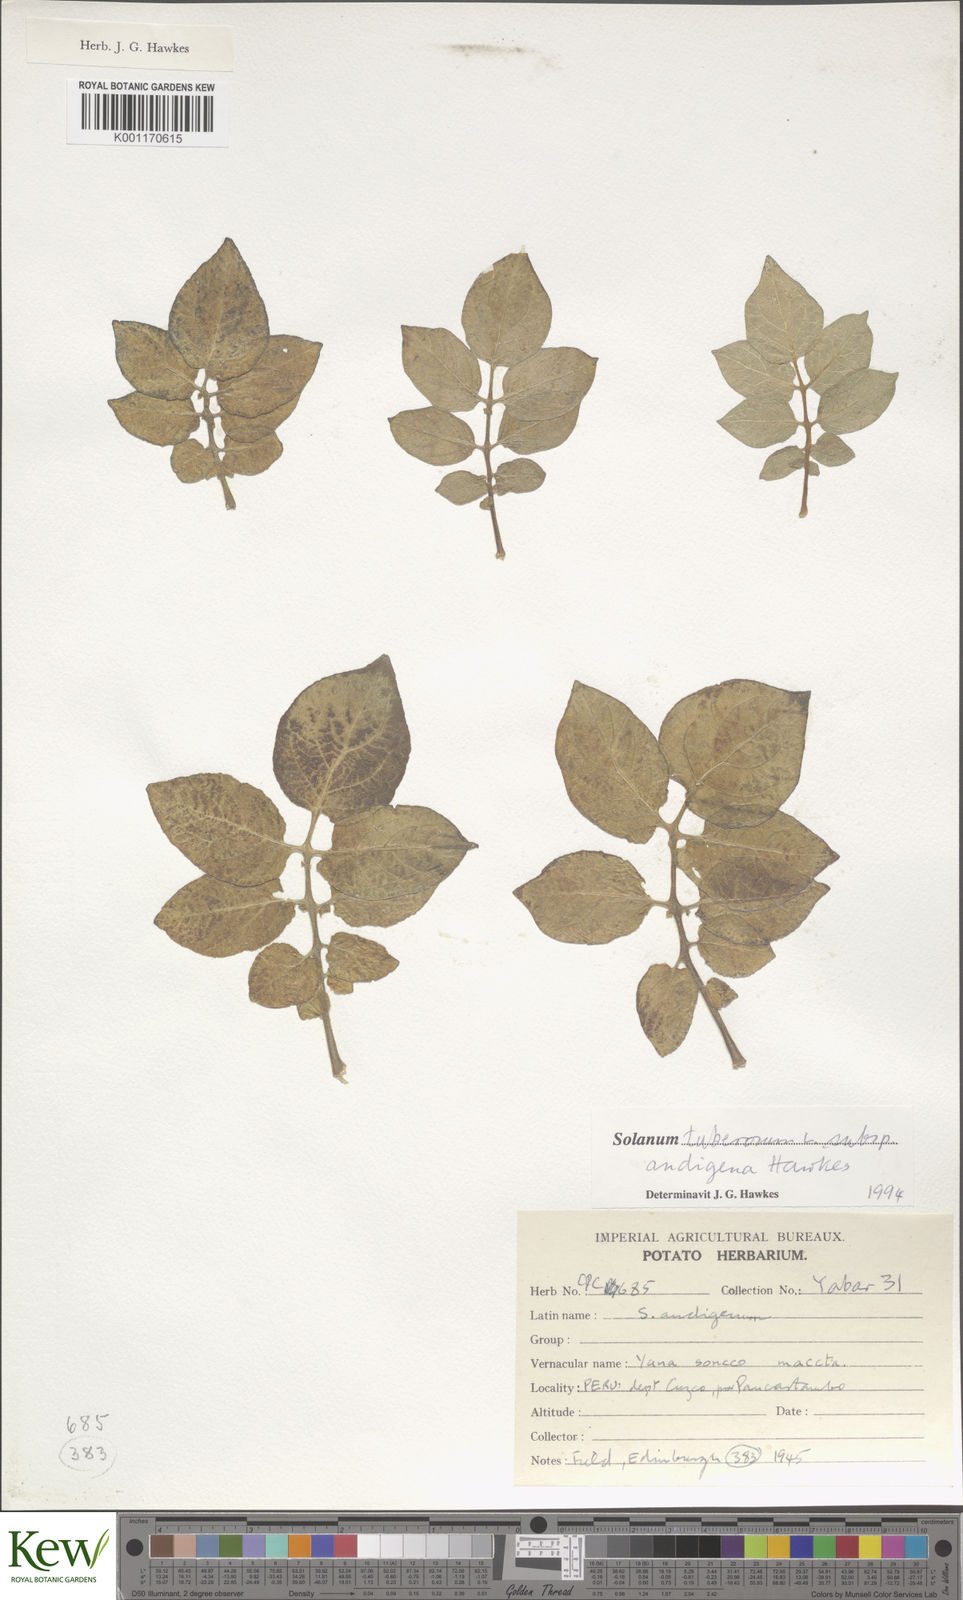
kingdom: Plantae
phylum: Tracheophyta
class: Magnoliopsida
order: Solanales
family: Solanaceae
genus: Solanum
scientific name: Solanum tuberosum
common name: Potato
